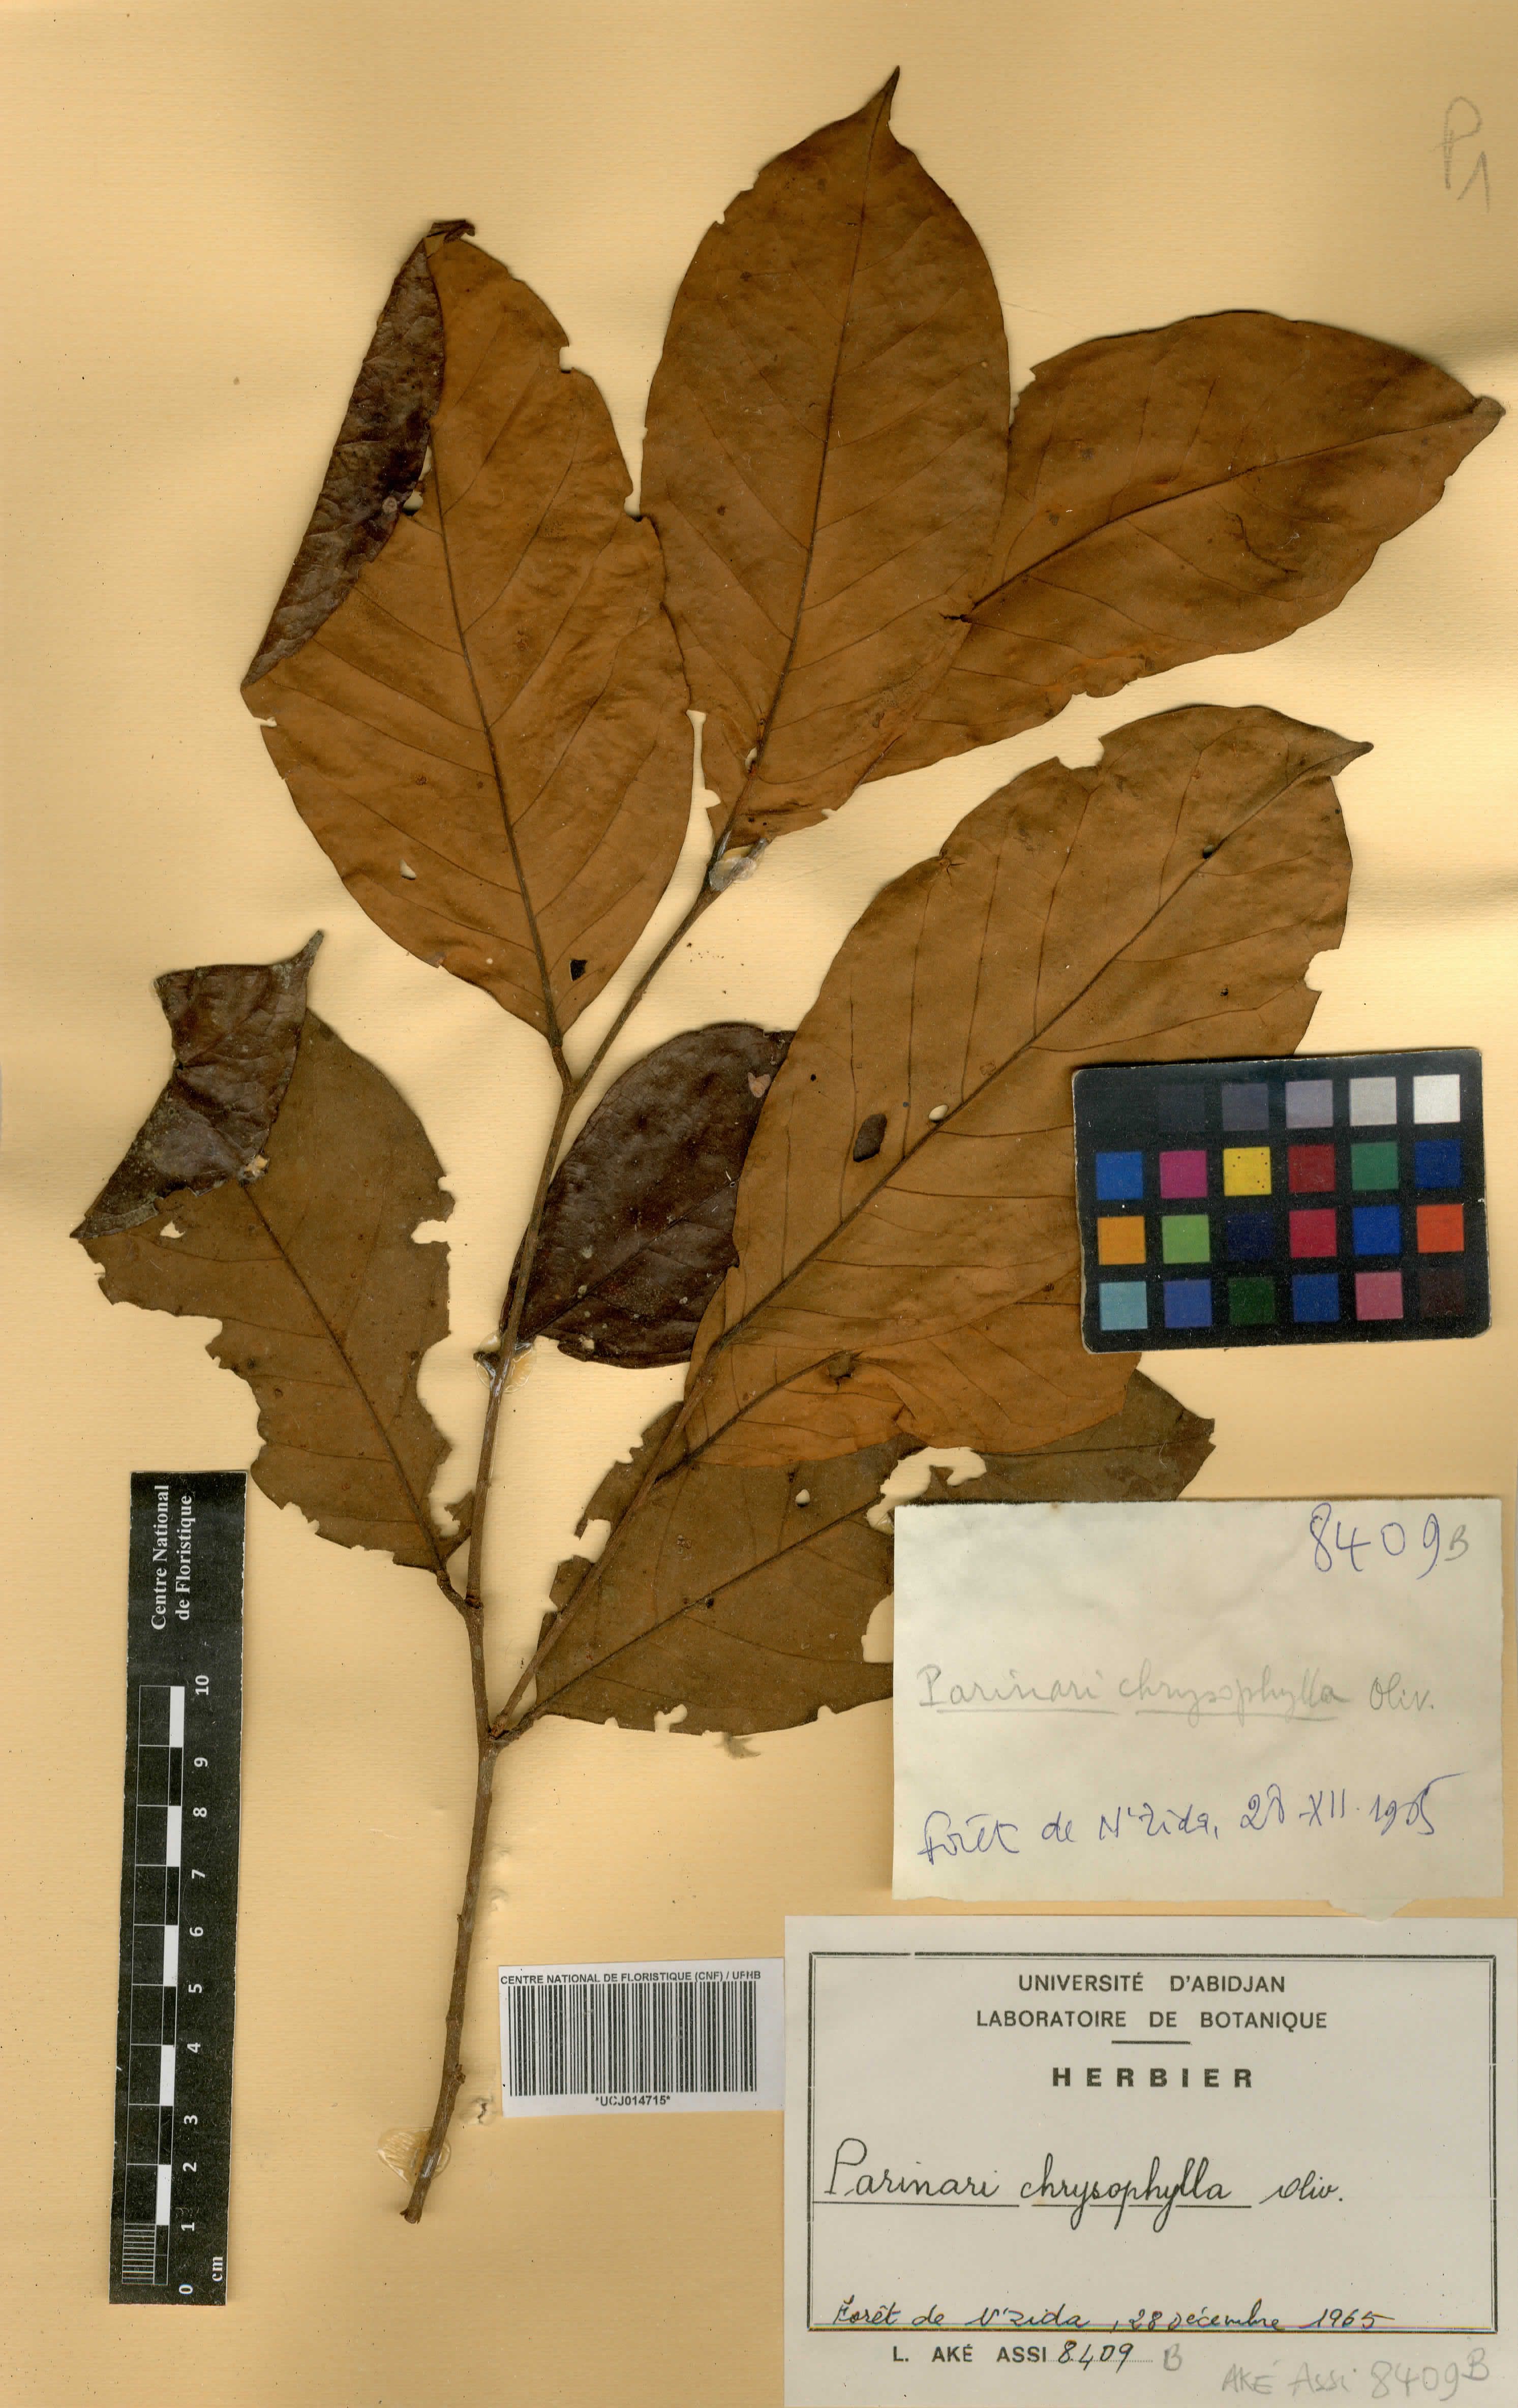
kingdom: Plantae
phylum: Tracheophyta
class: Magnoliopsida
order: Malpighiales
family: Chrysobalanaceae
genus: Maranthes
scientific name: Maranthes chrysophylla
